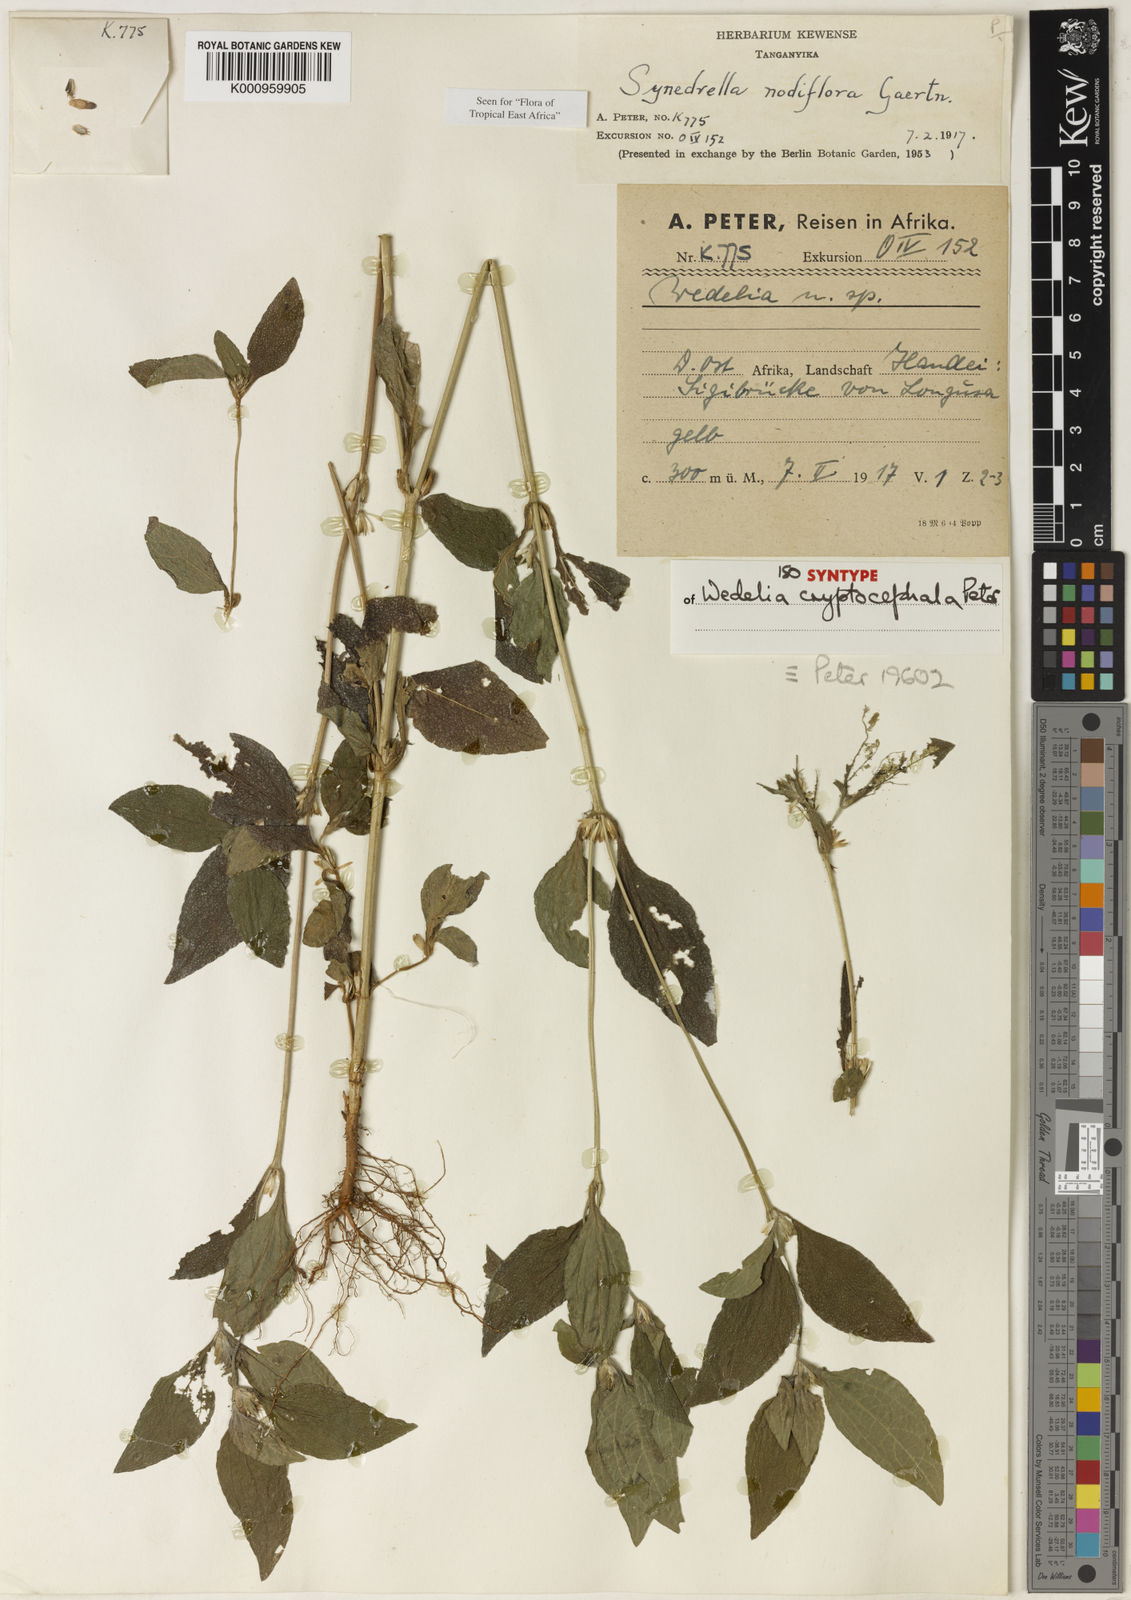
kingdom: Plantae
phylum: Tracheophyta
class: Magnoliopsida
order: Asterales
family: Asteraceae
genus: Synedrella
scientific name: Synedrella nodiflora
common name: Nodeweed
